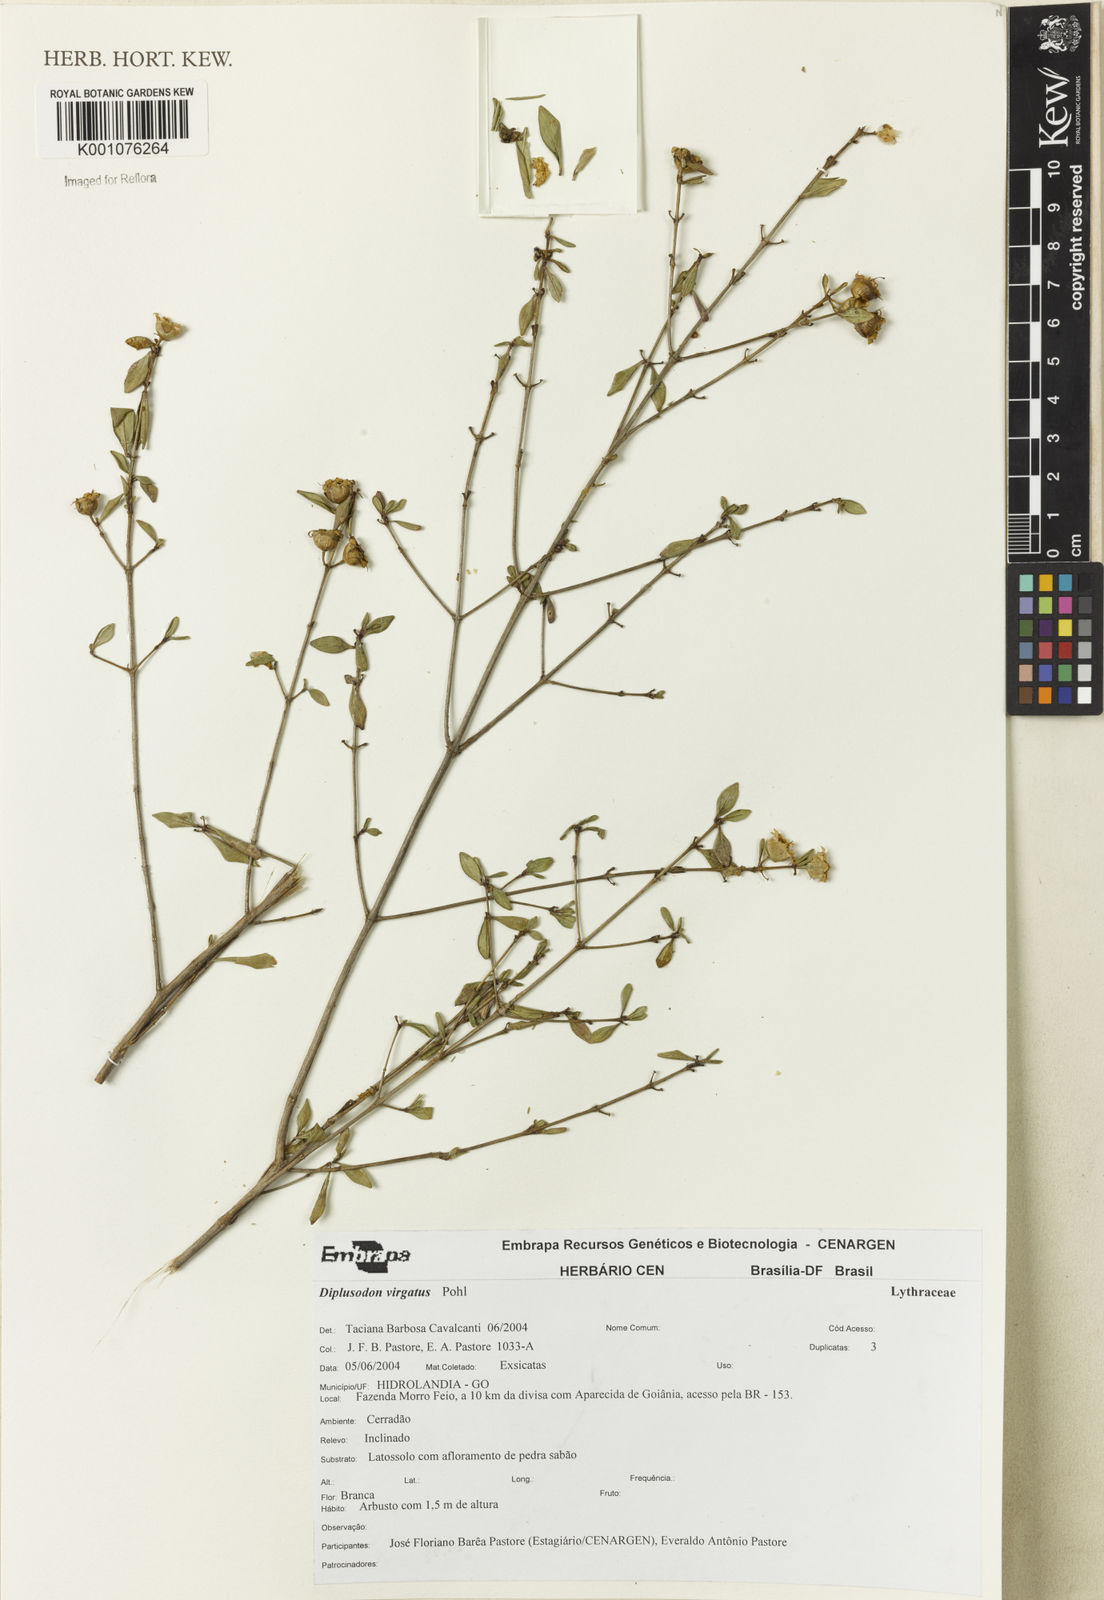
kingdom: Plantae
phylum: Tracheophyta
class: Magnoliopsida
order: Myrtales
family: Lythraceae
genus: Diplusodon
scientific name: Diplusodon virgatus
